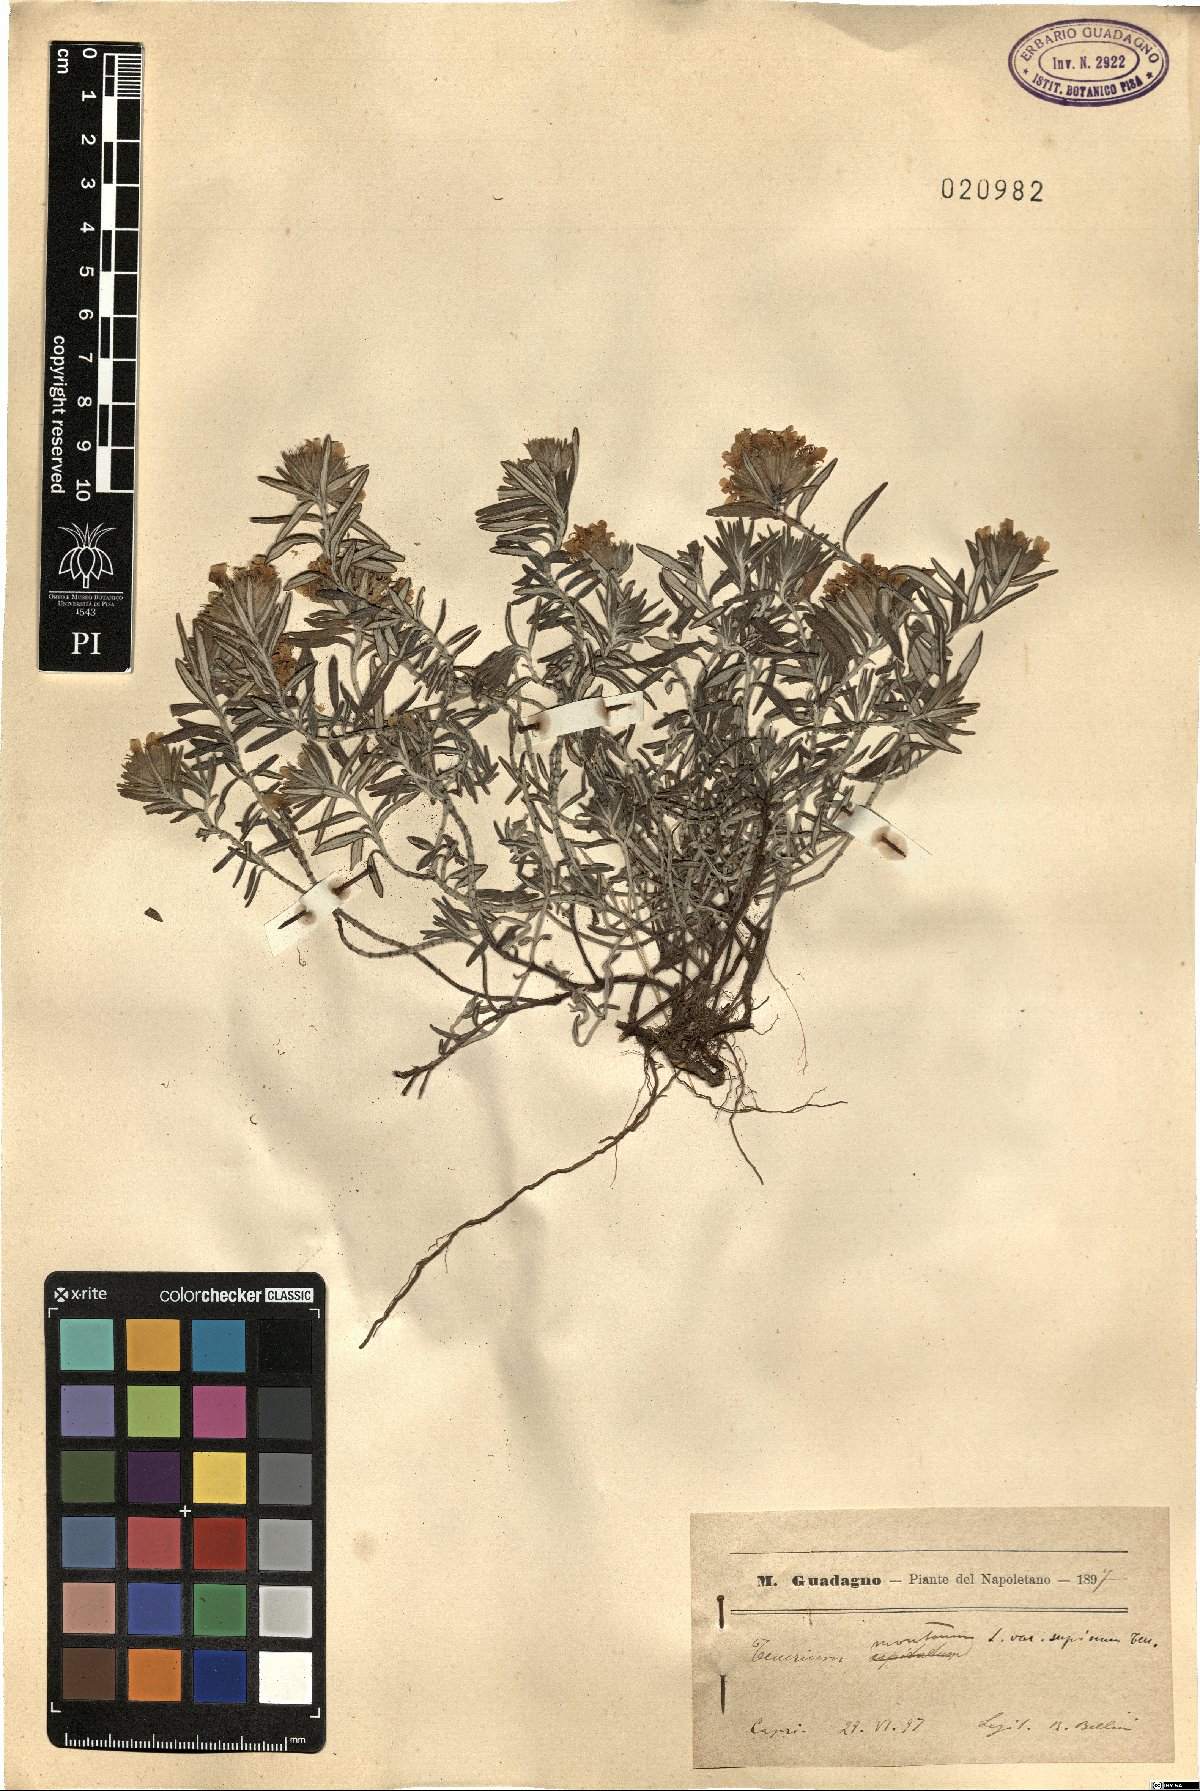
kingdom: Plantae
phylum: Tracheophyta
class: Magnoliopsida
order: Lamiales
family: Lamiaceae
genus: Teucrium
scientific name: Teucrium montanum
